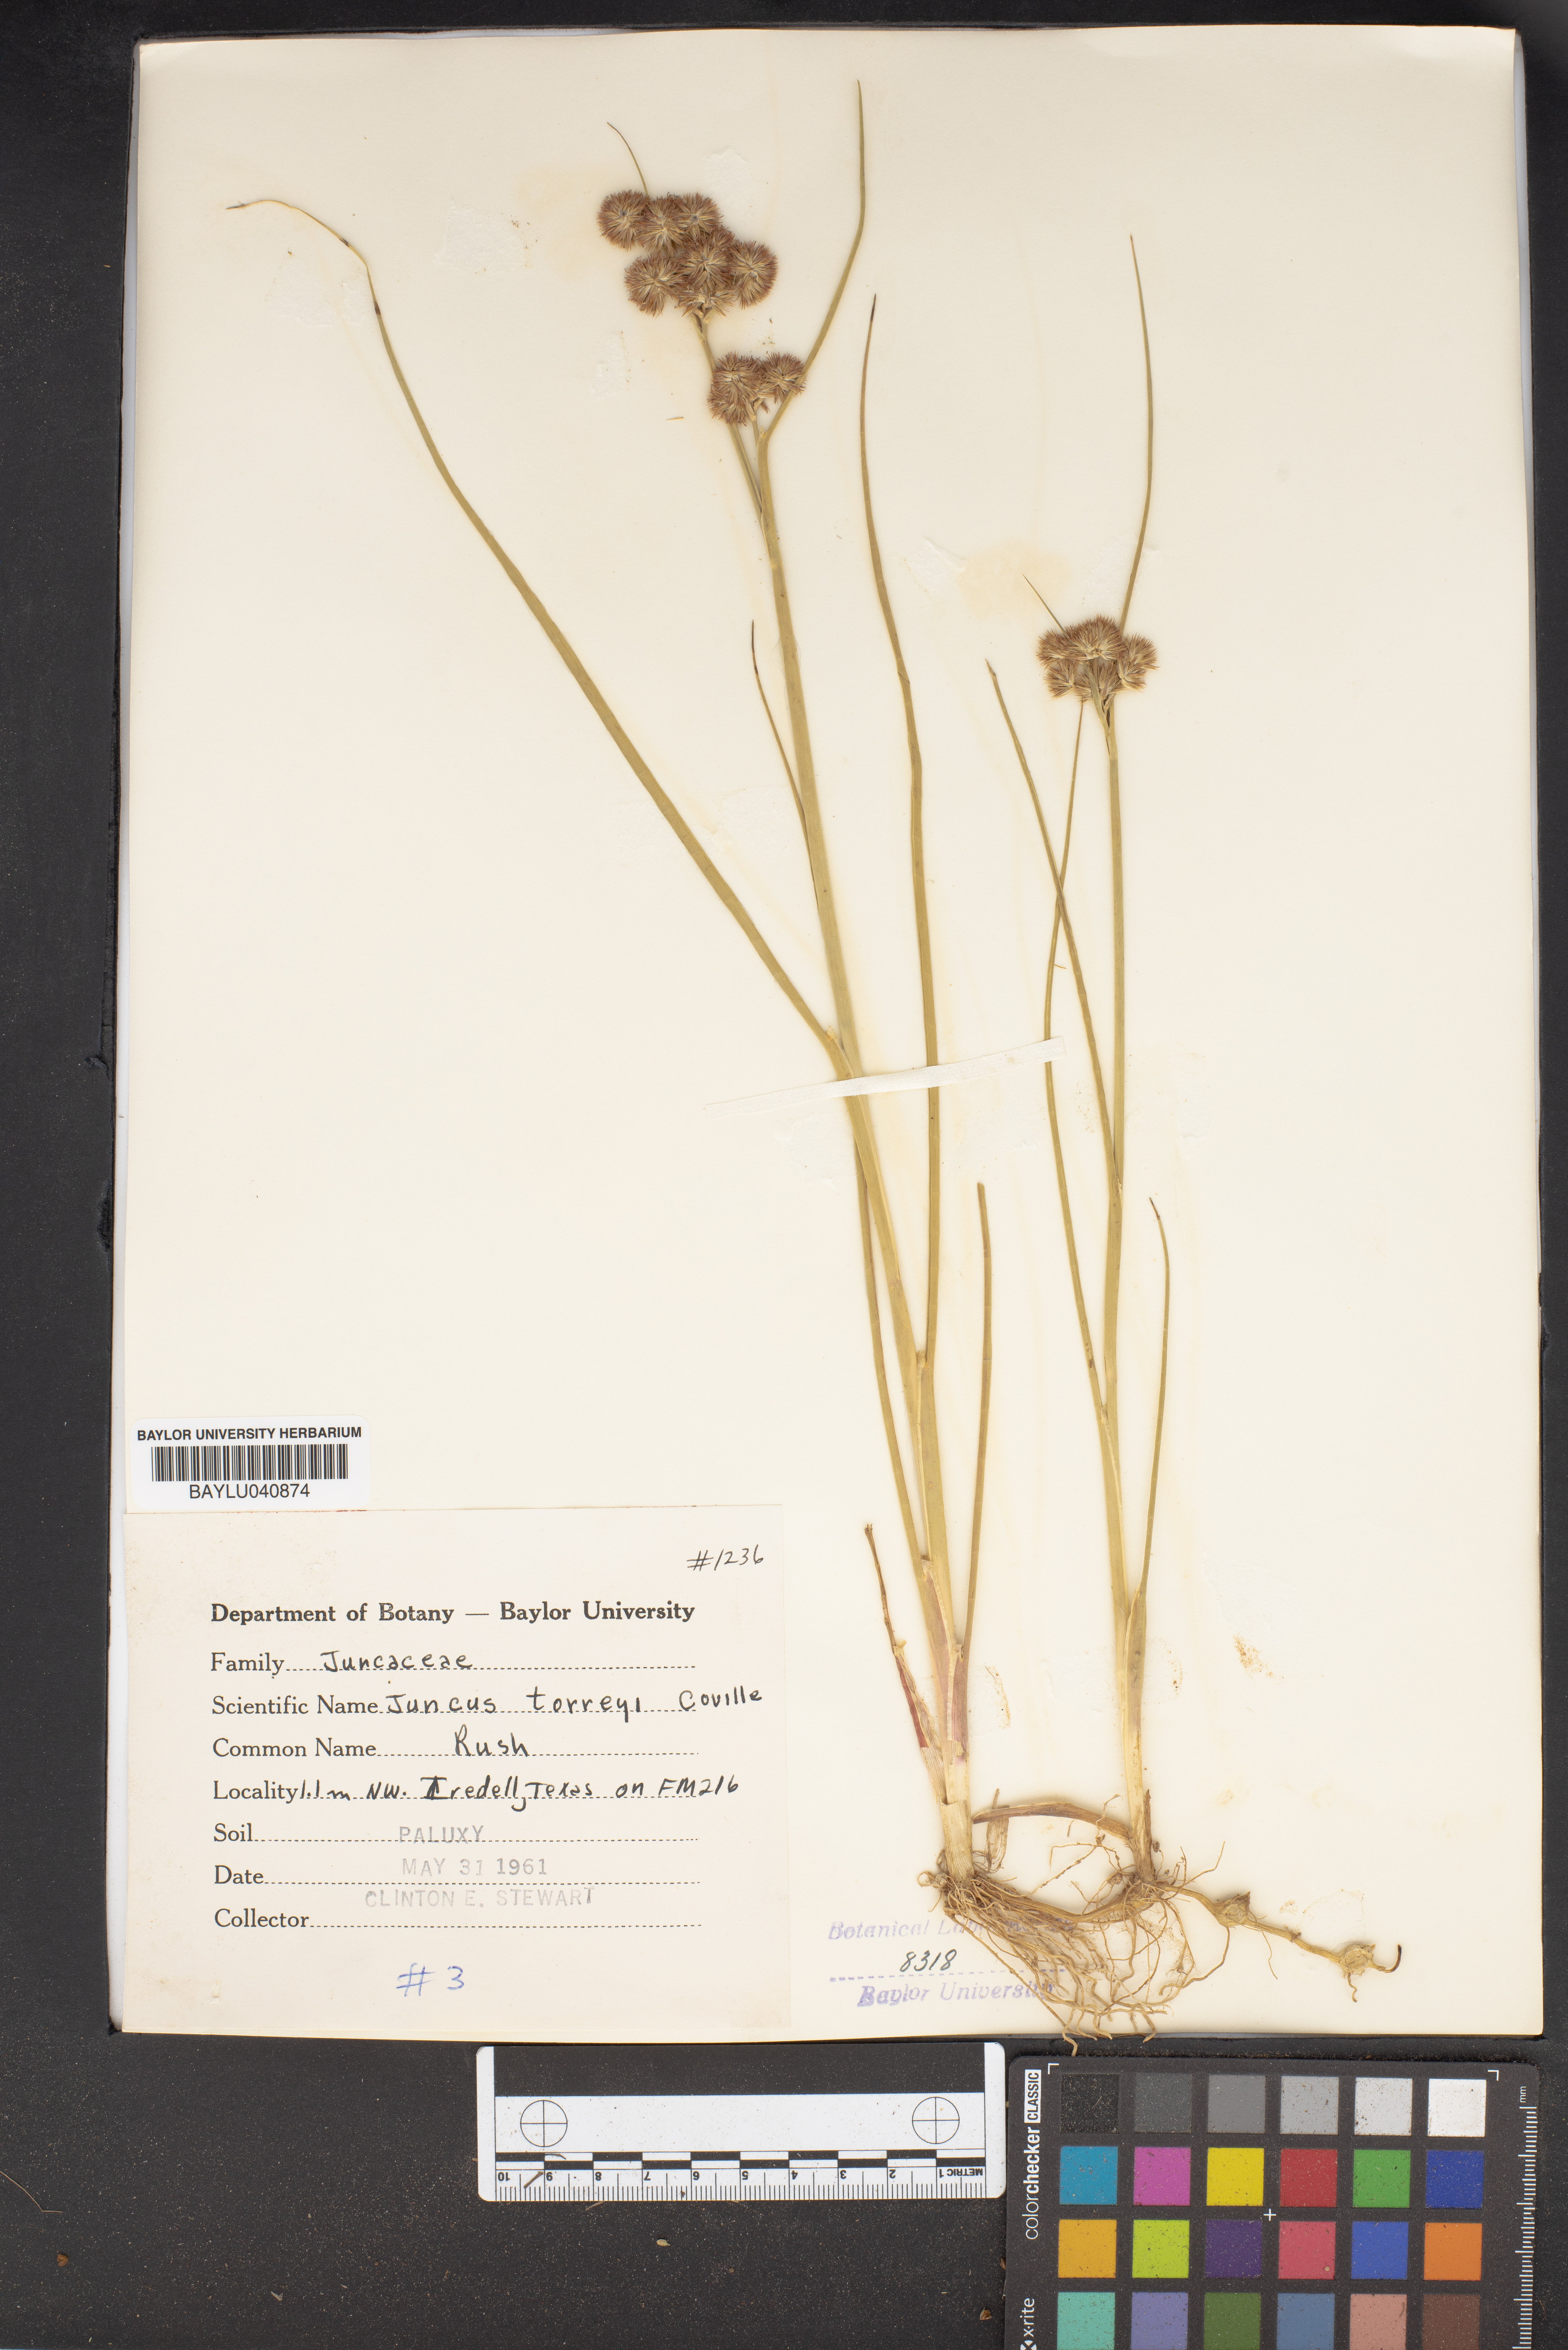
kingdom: Plantae
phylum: Tracheophyta
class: Liliopsida
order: Poales
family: Juncaceae
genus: Juncus
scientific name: Juncus torreyi
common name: Torrey's rush
